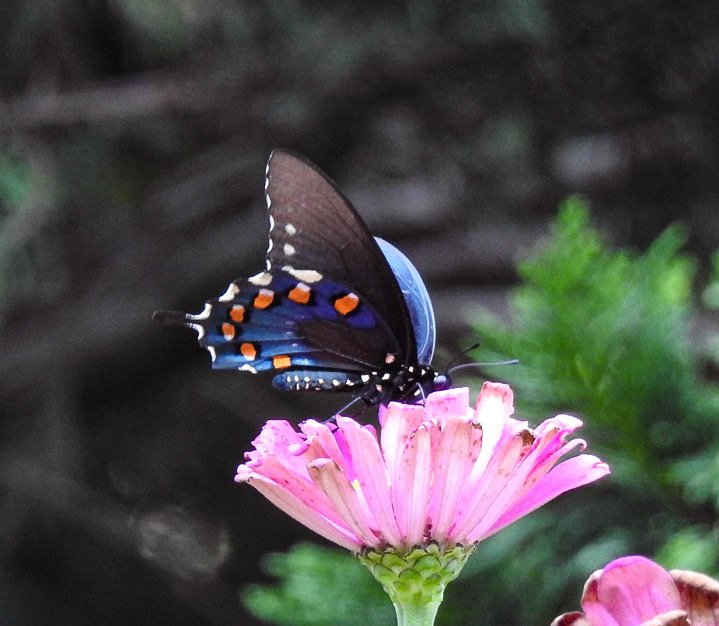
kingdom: Animalia
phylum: Arthropoda
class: Insecta
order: Lepidoptera
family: Papilionidae
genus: Battus
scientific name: Battus philenor
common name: Pipevine Swallowtail
